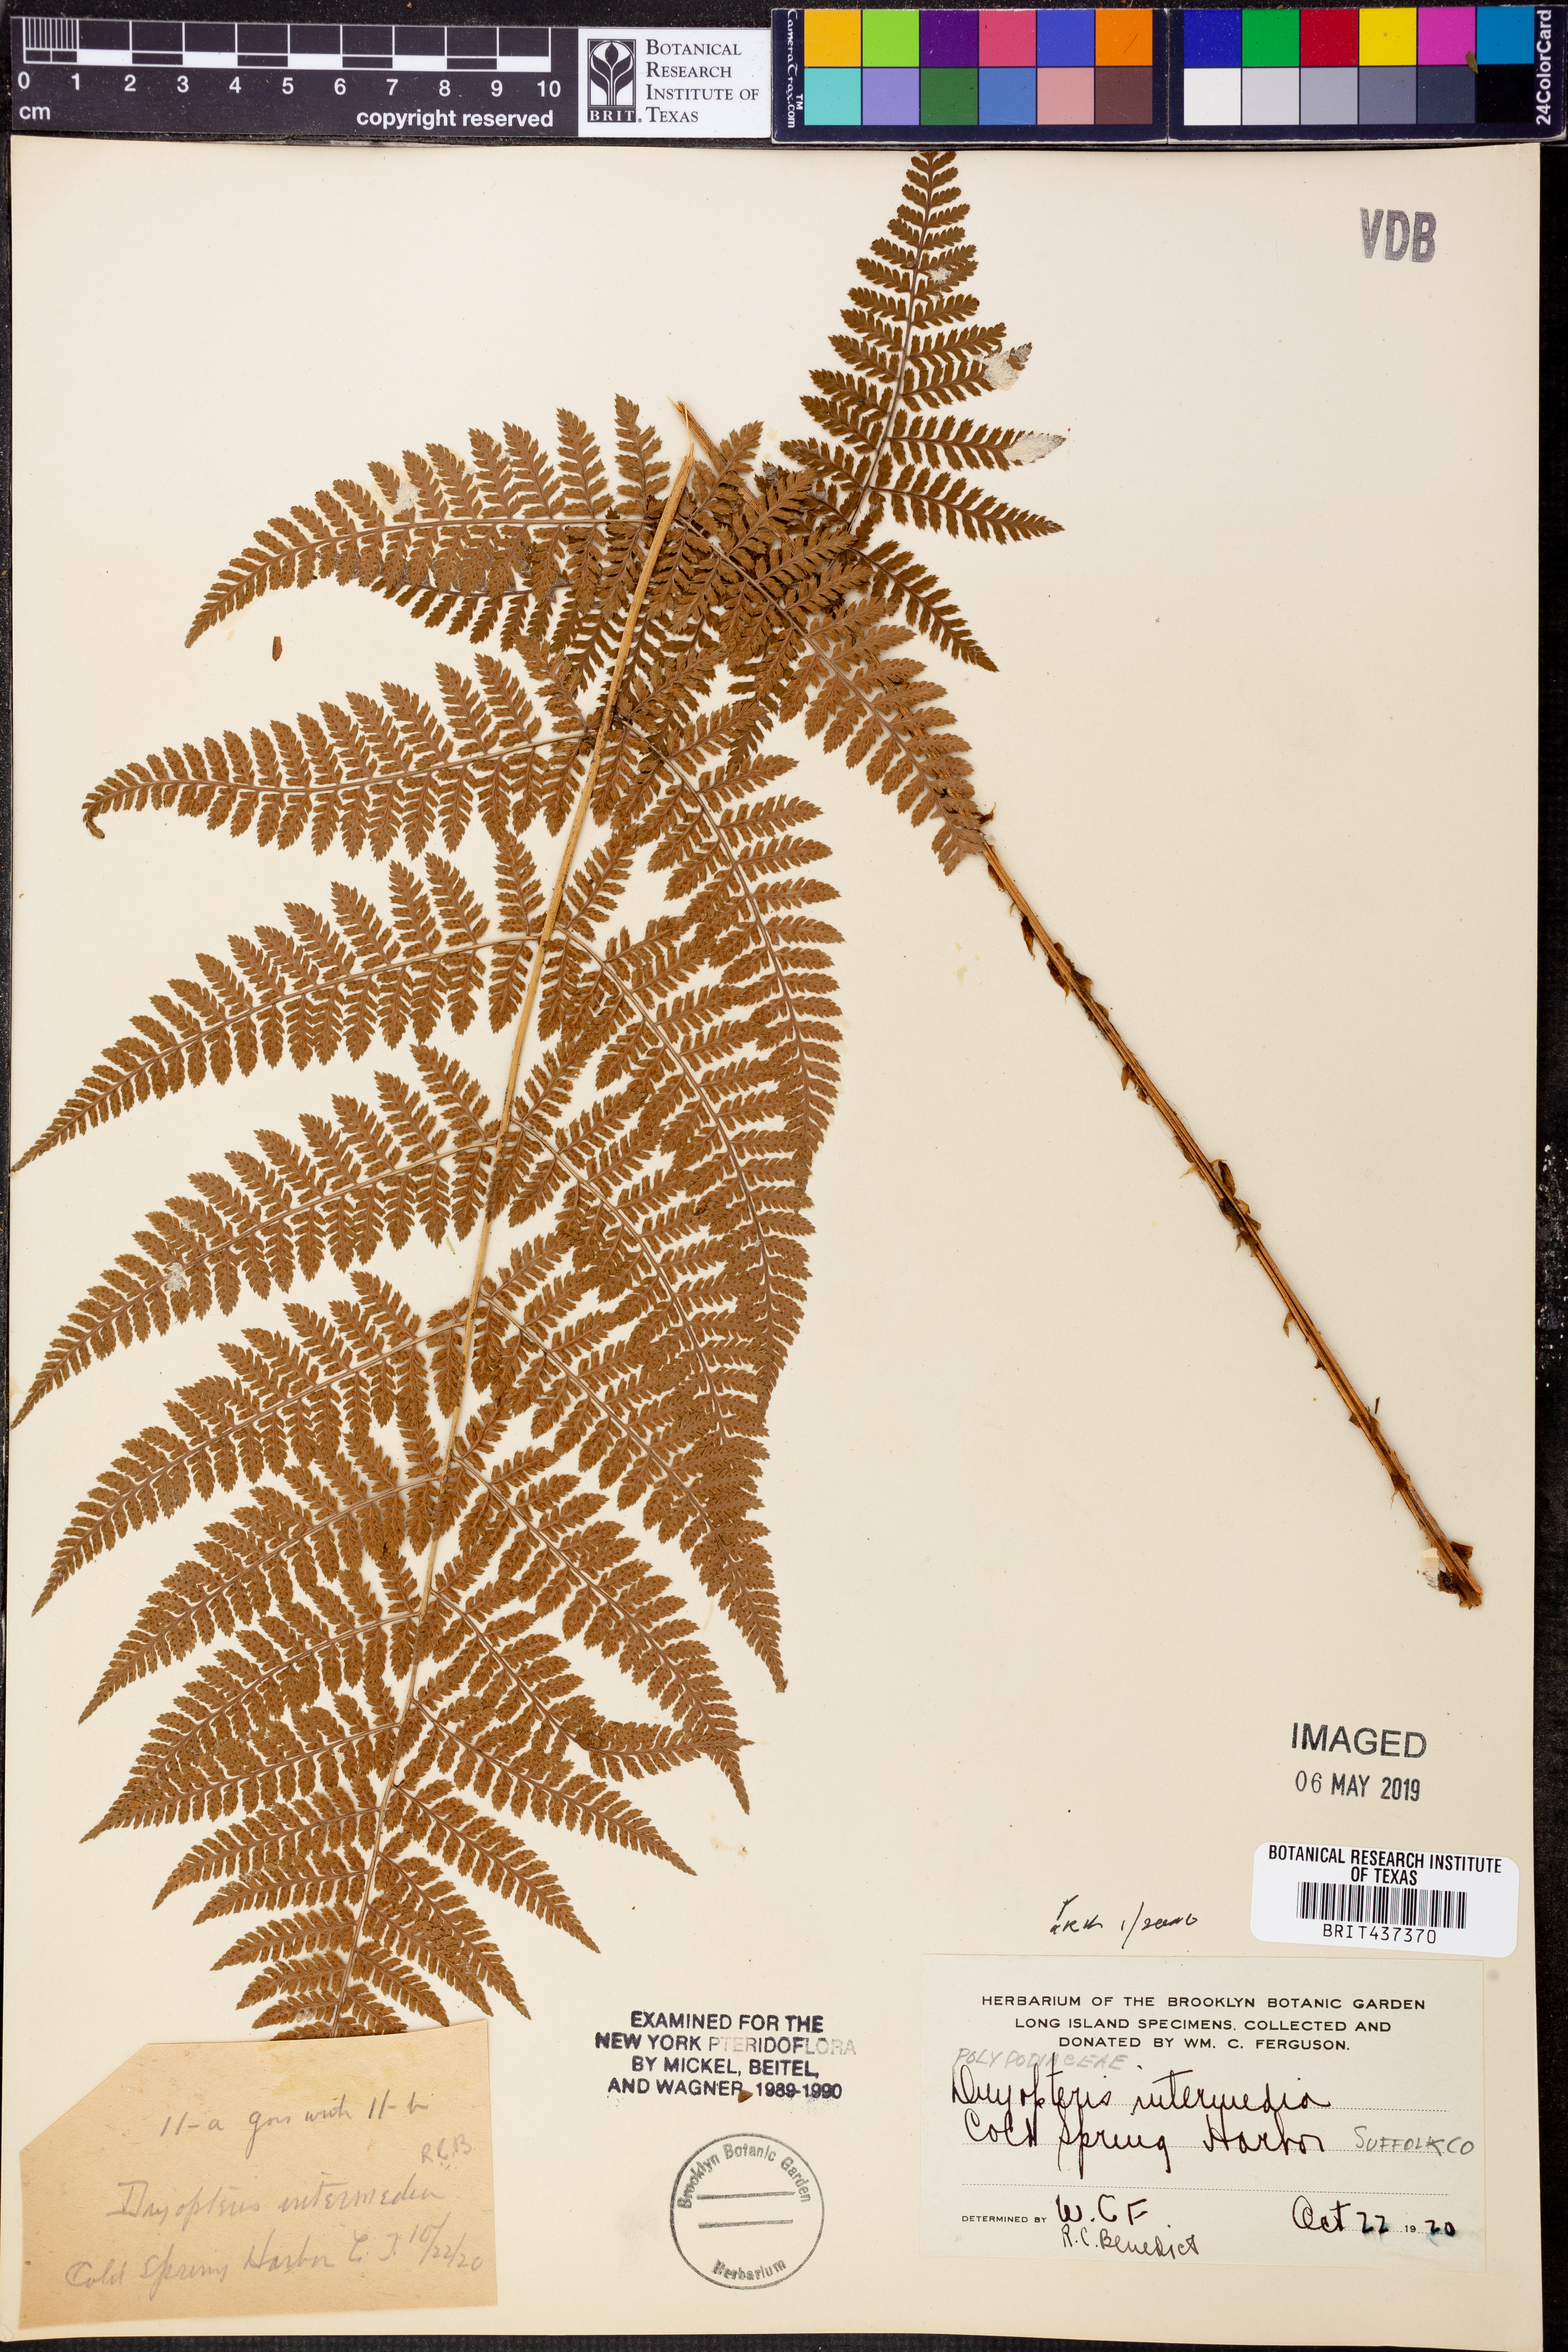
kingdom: Plantae
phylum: Tracheophyta
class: Polypodiopsida
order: Polypodiales
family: Dryopteridaceae
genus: Dryopteris
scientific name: Dryopteris intermedia
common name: Evergreen wood fern
